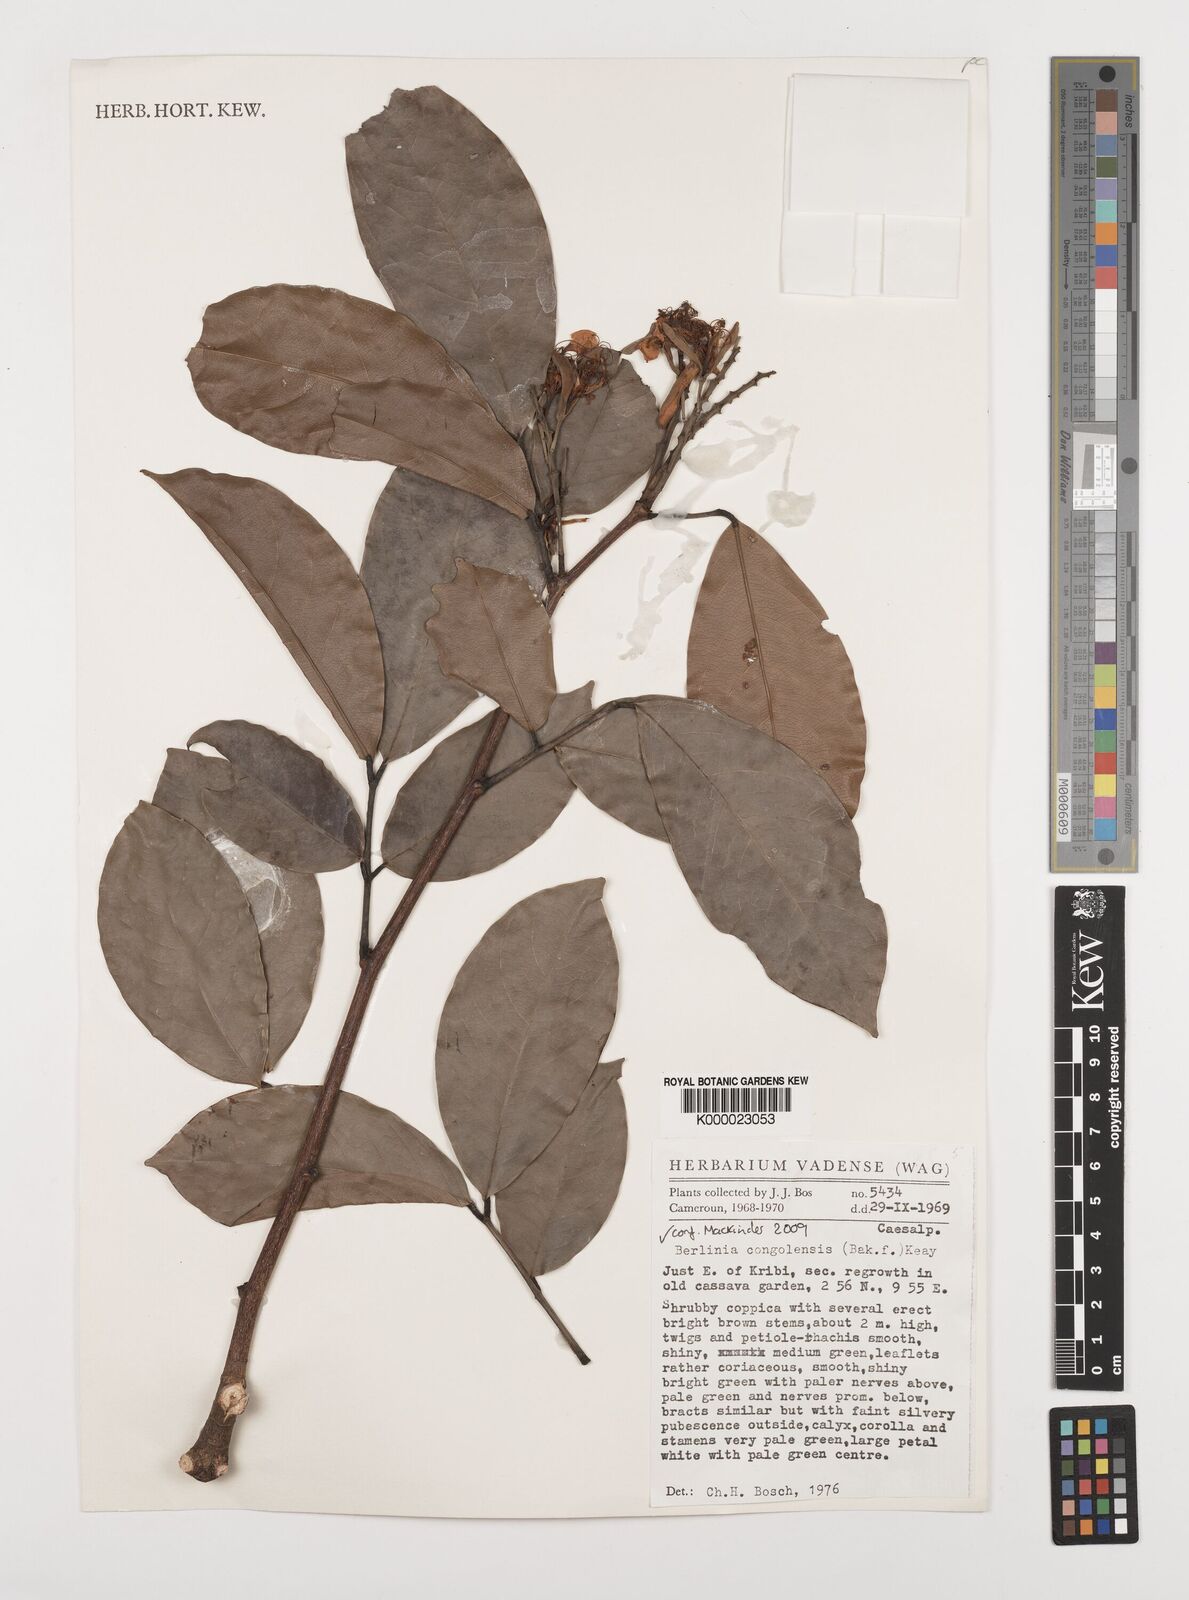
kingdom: Plantae
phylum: Tracheophyta
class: Magnoliopsida
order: Fabales
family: Fabaceae
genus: Berlinia
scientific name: Berlinia auriculata
